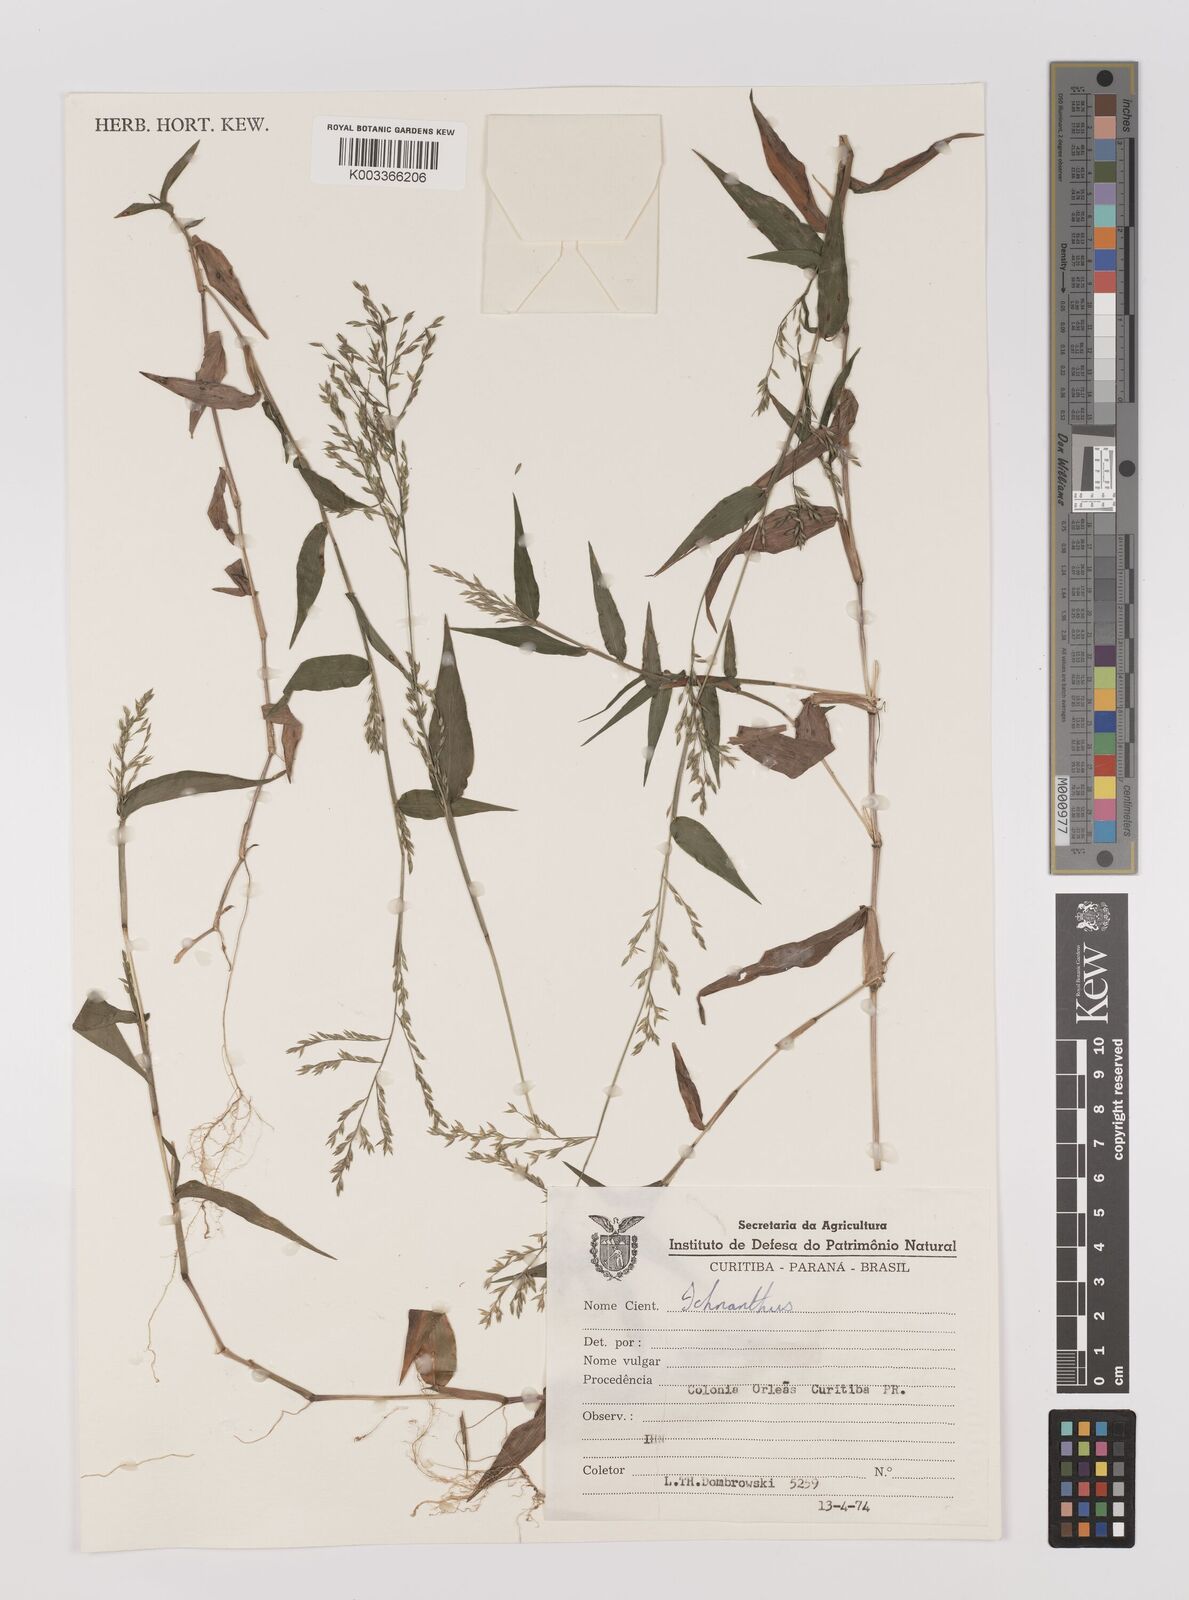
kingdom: Plantae
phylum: Tracheophyta
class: Liliopsida
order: Poales
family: Poaceae
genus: Ichnanthus
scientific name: Ichnanthus pallens
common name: Water grass
